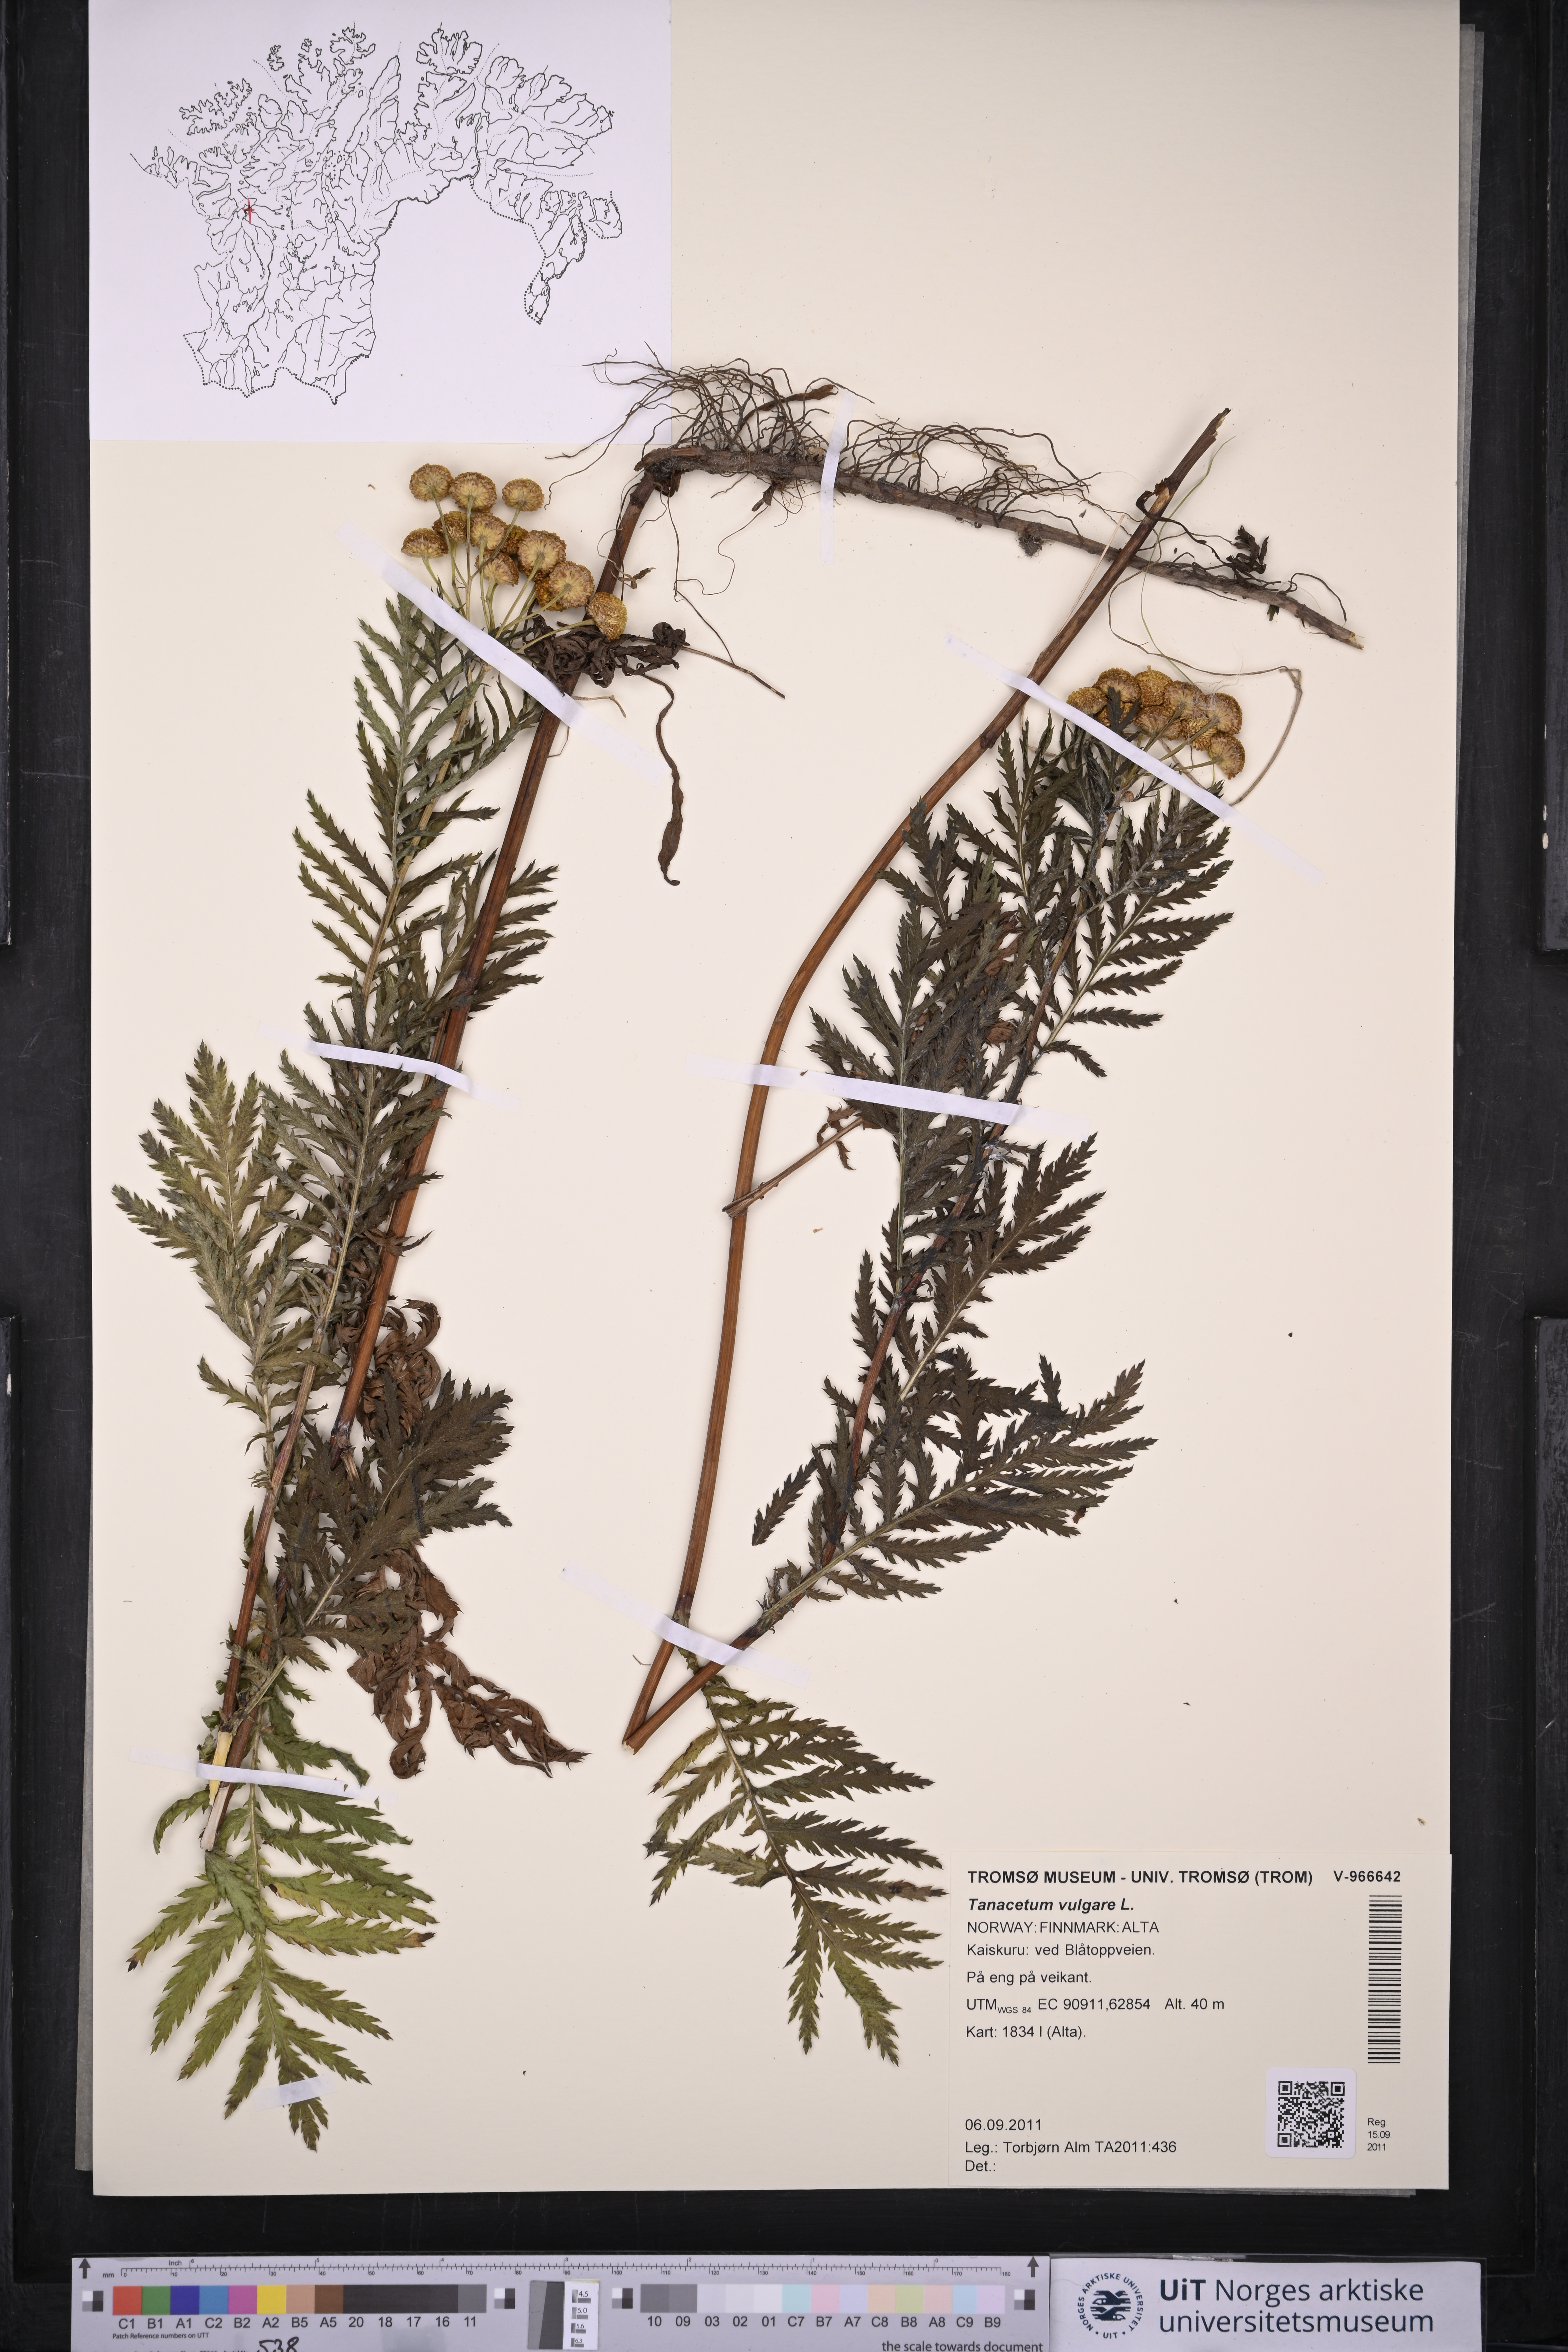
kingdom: Plantae
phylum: Tracheophyta
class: Magnoliopsida
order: Asterales
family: Asteraceae
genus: Tanacetum
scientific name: Tanacetum vulgare
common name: Common tansy
